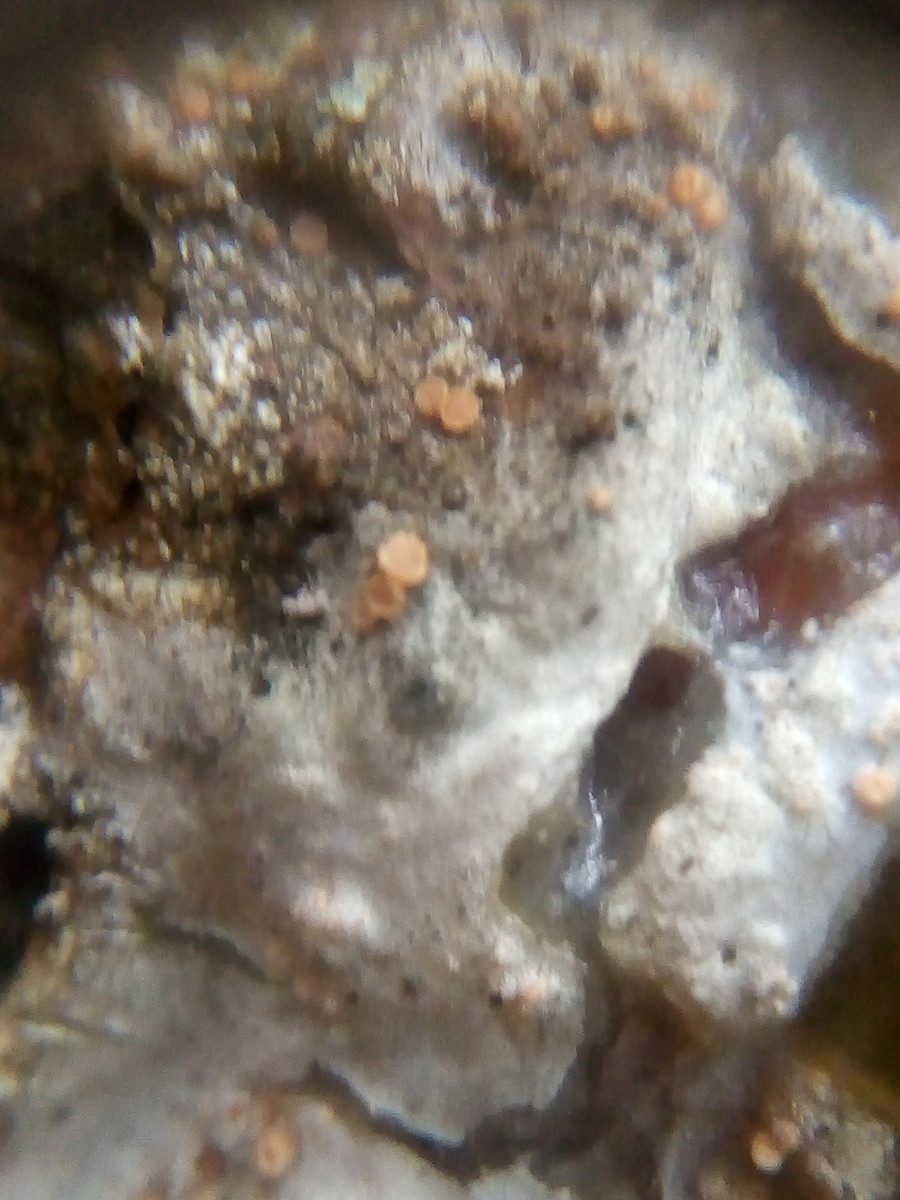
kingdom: Fungi
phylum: Ascomycota
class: Sareomycetes
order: Sareales
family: Sareaceae
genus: Sarea
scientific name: Sarea resinae
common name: orangegul harpiksskive
